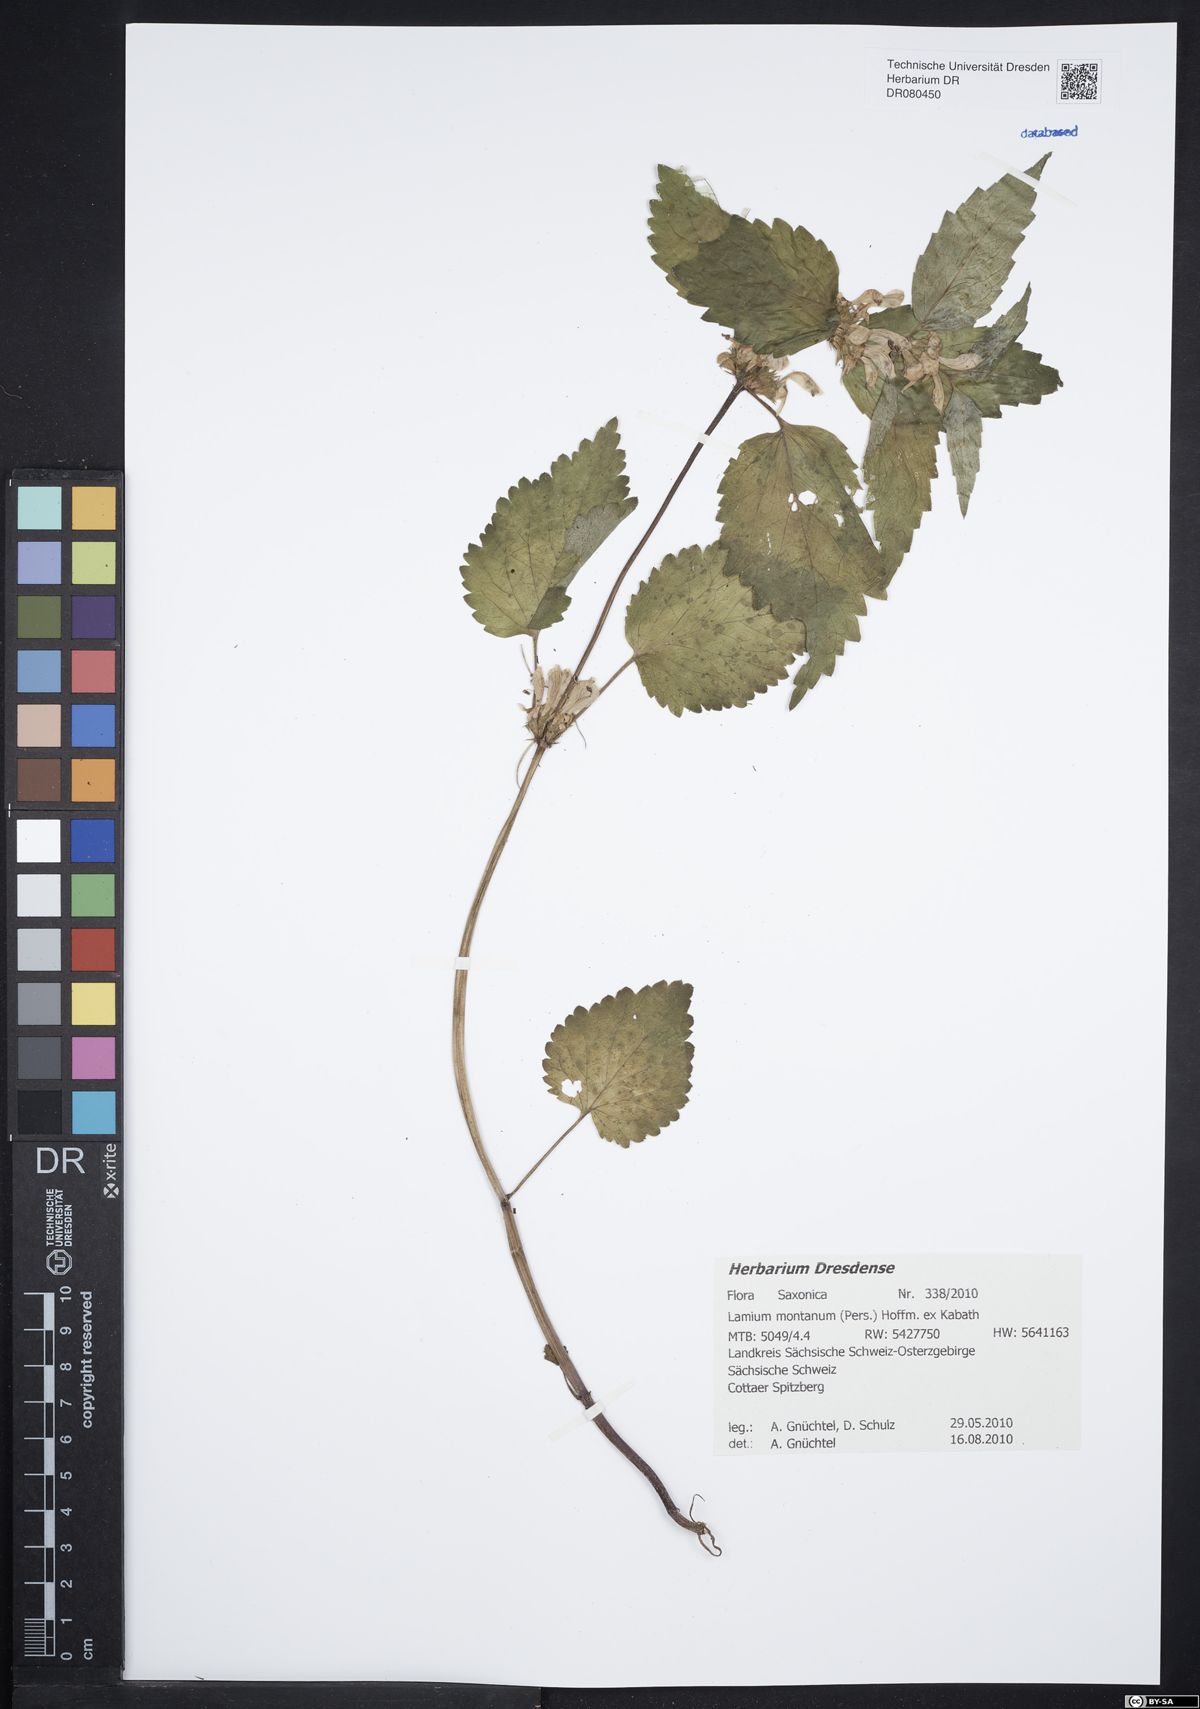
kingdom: Plantae
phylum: Tracheophyta
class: Magnoliopsida
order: Lamiales
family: Lamiaceae
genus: Lamium
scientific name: Lamium galeobdolon
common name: Yellow archangel
